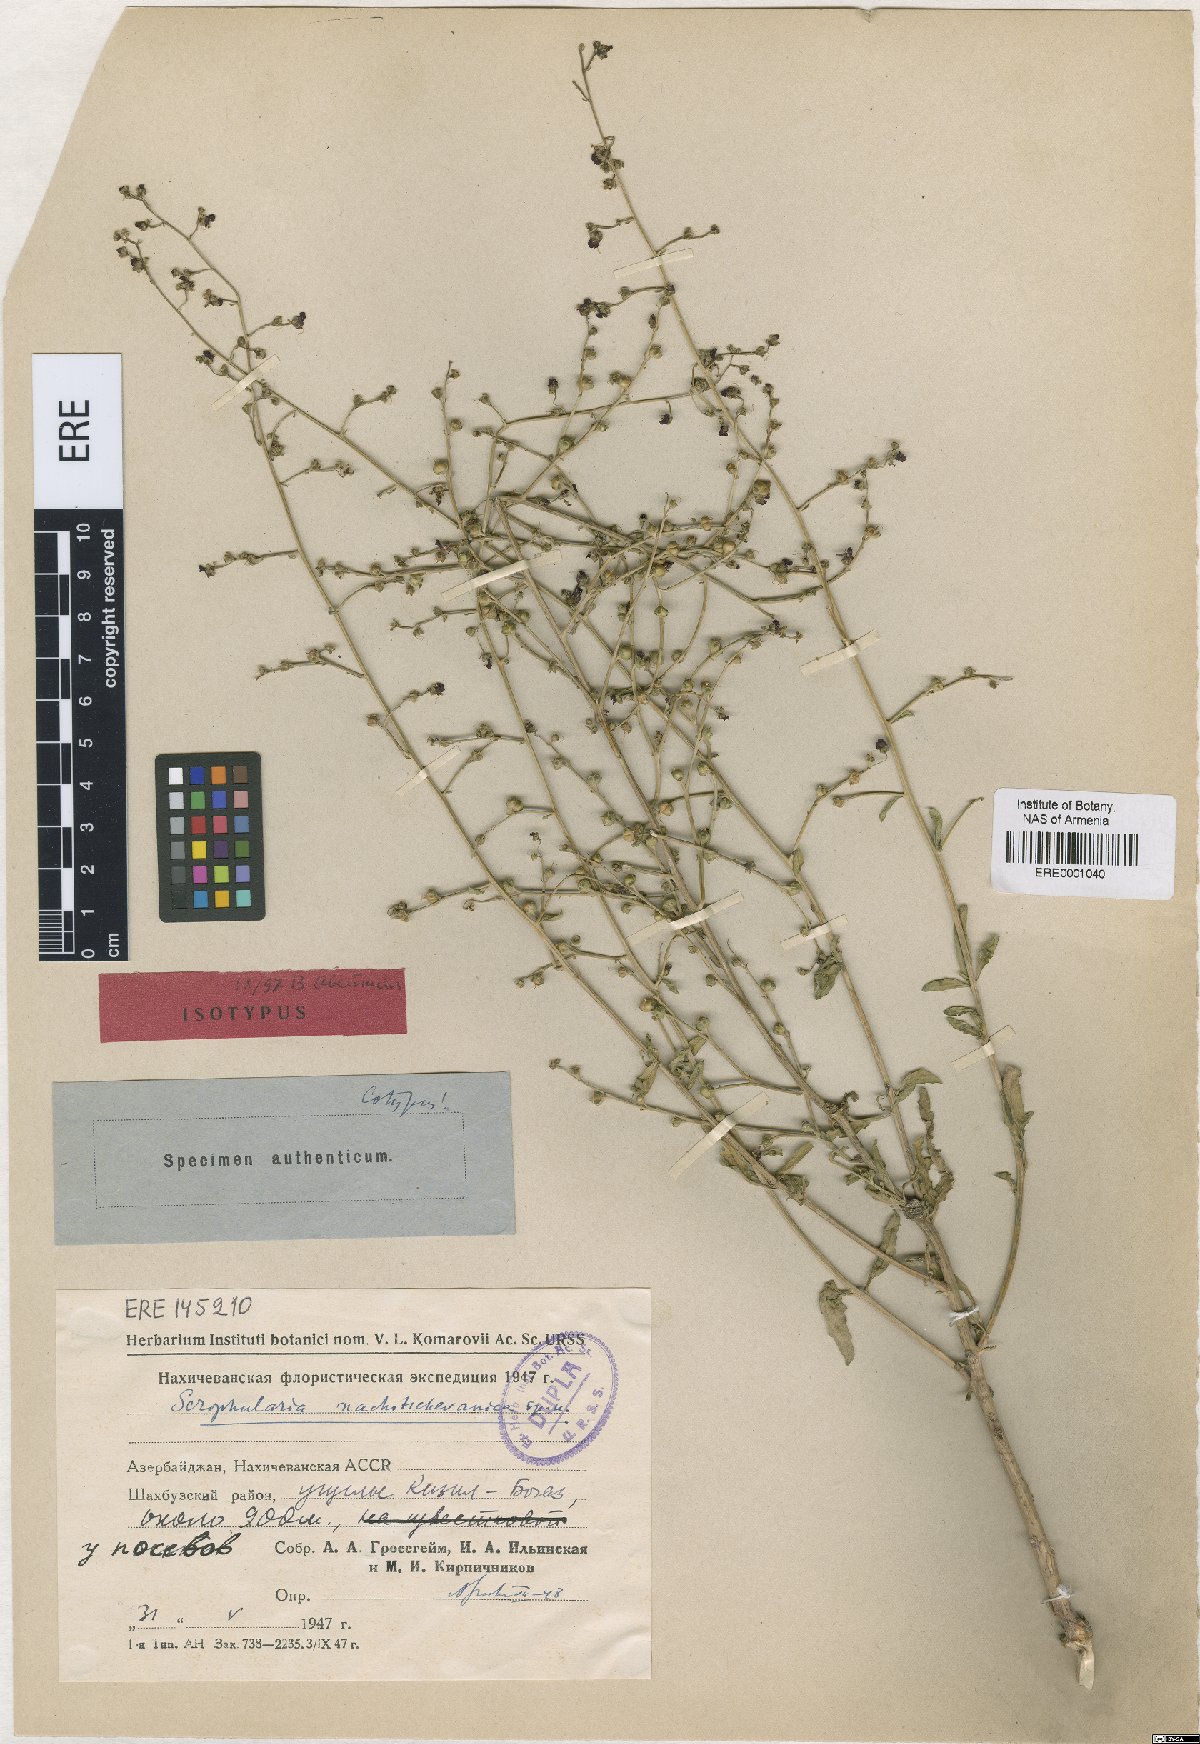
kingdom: Plantae
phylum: Tracheophyta
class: Magnoliopsida
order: Lamiales
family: Scrophulariaceae
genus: Scrophularia
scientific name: Scrophularia puberula
